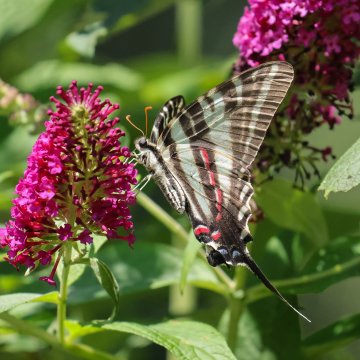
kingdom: Animalia
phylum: Arthropoda
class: Insecta
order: Lepidoptera
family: Papilionidae
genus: Protographium
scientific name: Protographium marcellus
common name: Zebra Swallowtail
